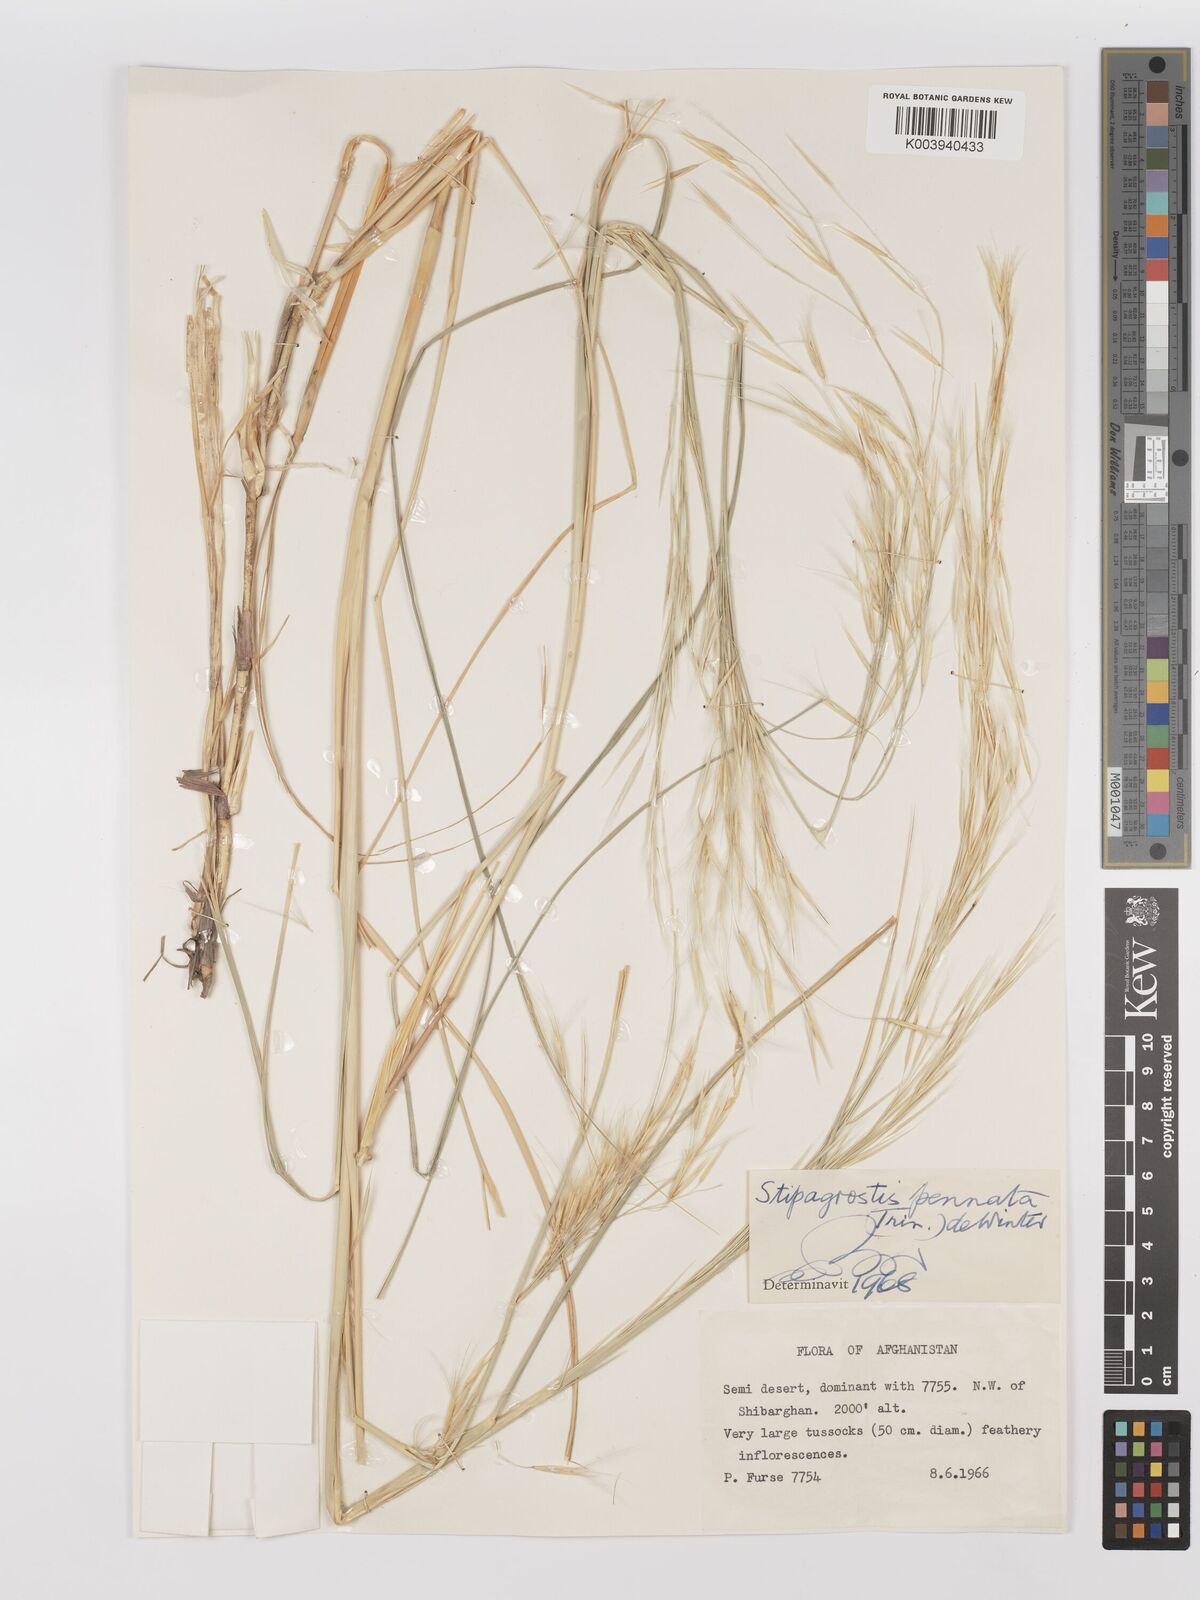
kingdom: Plantae
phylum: Tracheophyta
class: Liliopsida
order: Poales
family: Poaceae
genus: Stipagrostis
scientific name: Stipagrostis pennata
